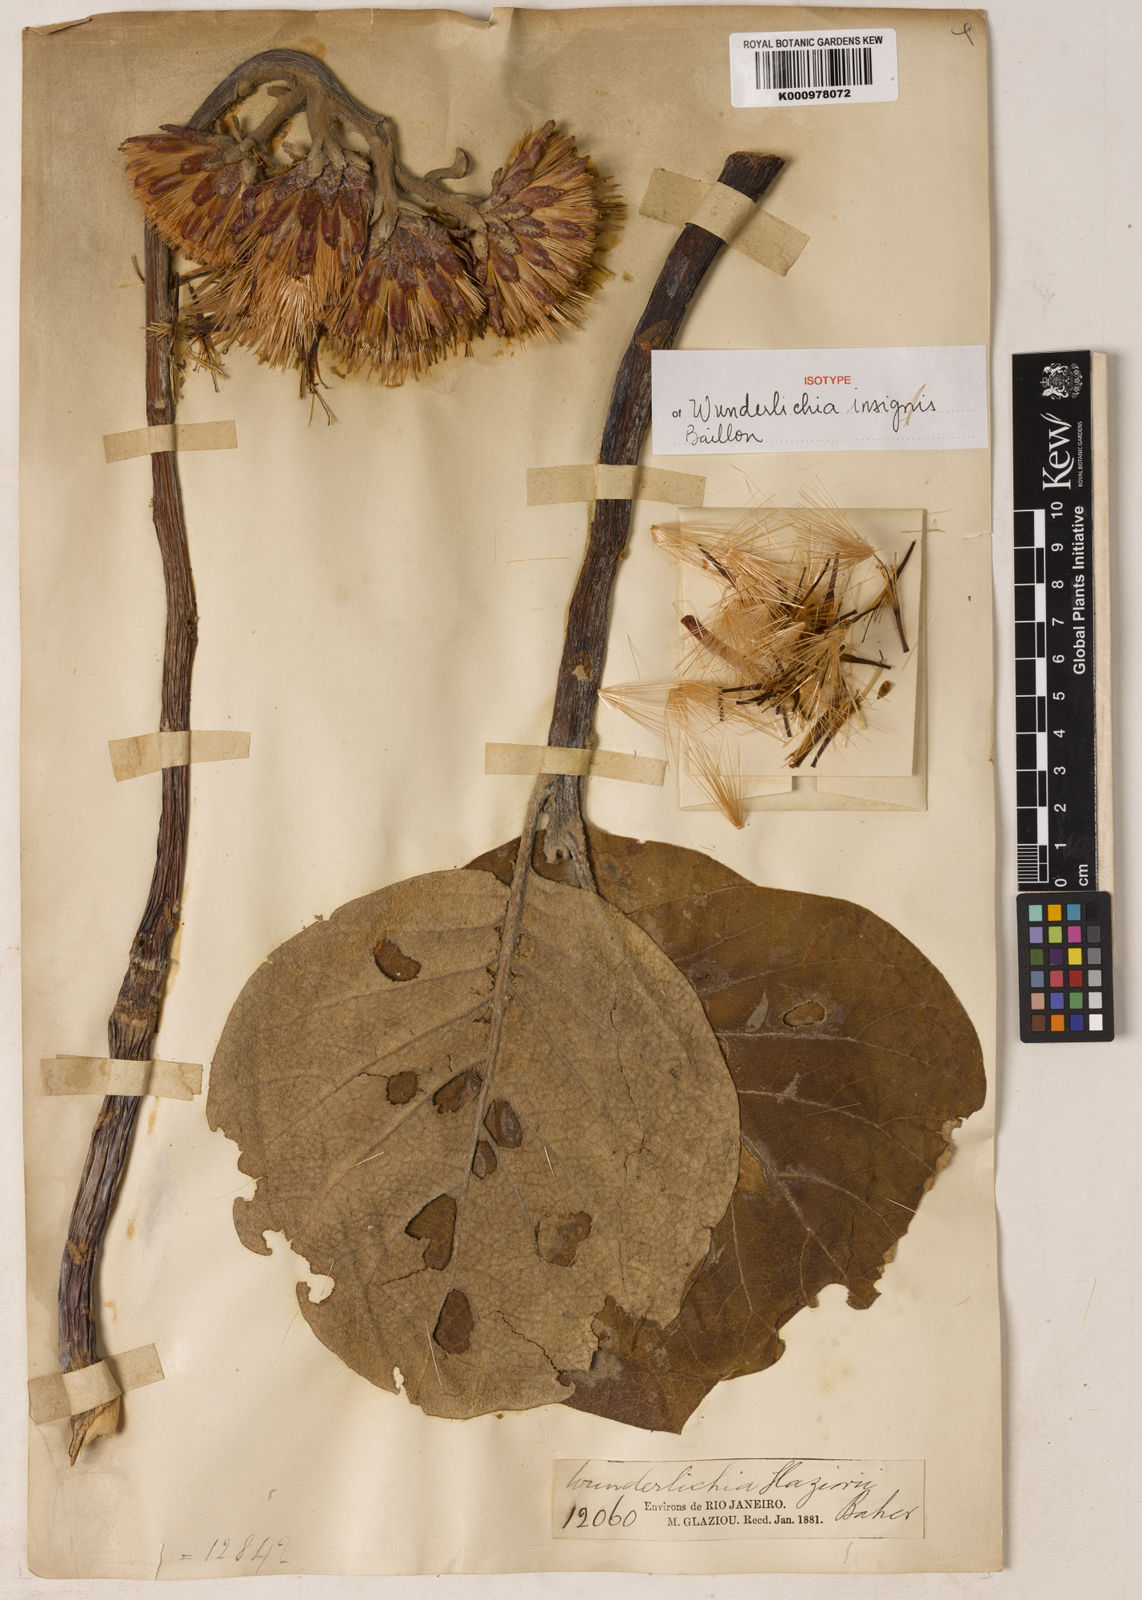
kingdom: Plantae
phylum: Tracheophyta
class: Magnoliopsida
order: Asterales
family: Asteraceae
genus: Wunderlichia
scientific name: Wunderlichia insignis
